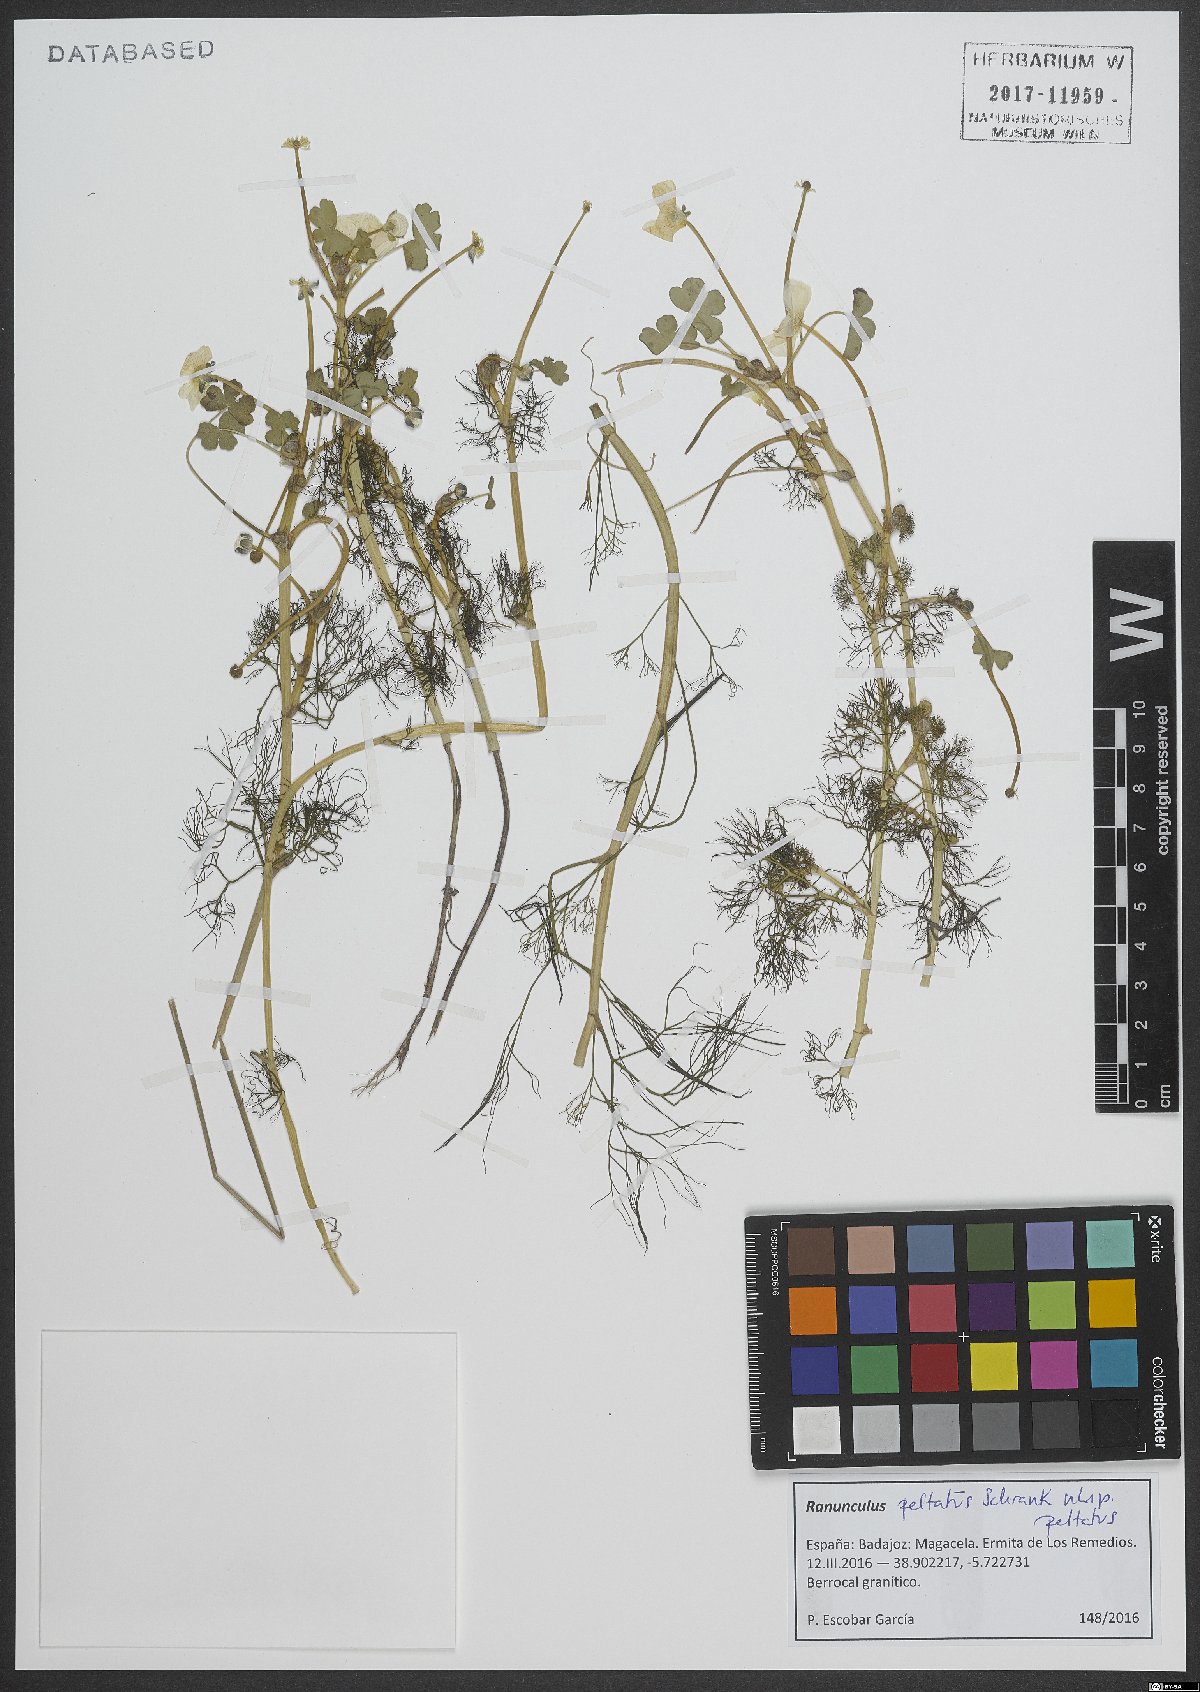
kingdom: Plantae
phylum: Tracheophyta
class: Magnoliopsida
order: Ranunculales
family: Ranunculaceae
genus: Ranunculus
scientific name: Ranunculus peltatus
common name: Pond water-crowfoot
